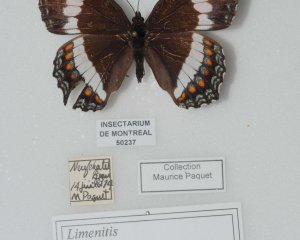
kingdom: Animalia
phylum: Arthropoda
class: Insecta
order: Lepidoptera
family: Nymphalidae
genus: Limenitis
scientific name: Limenitis astyanax
